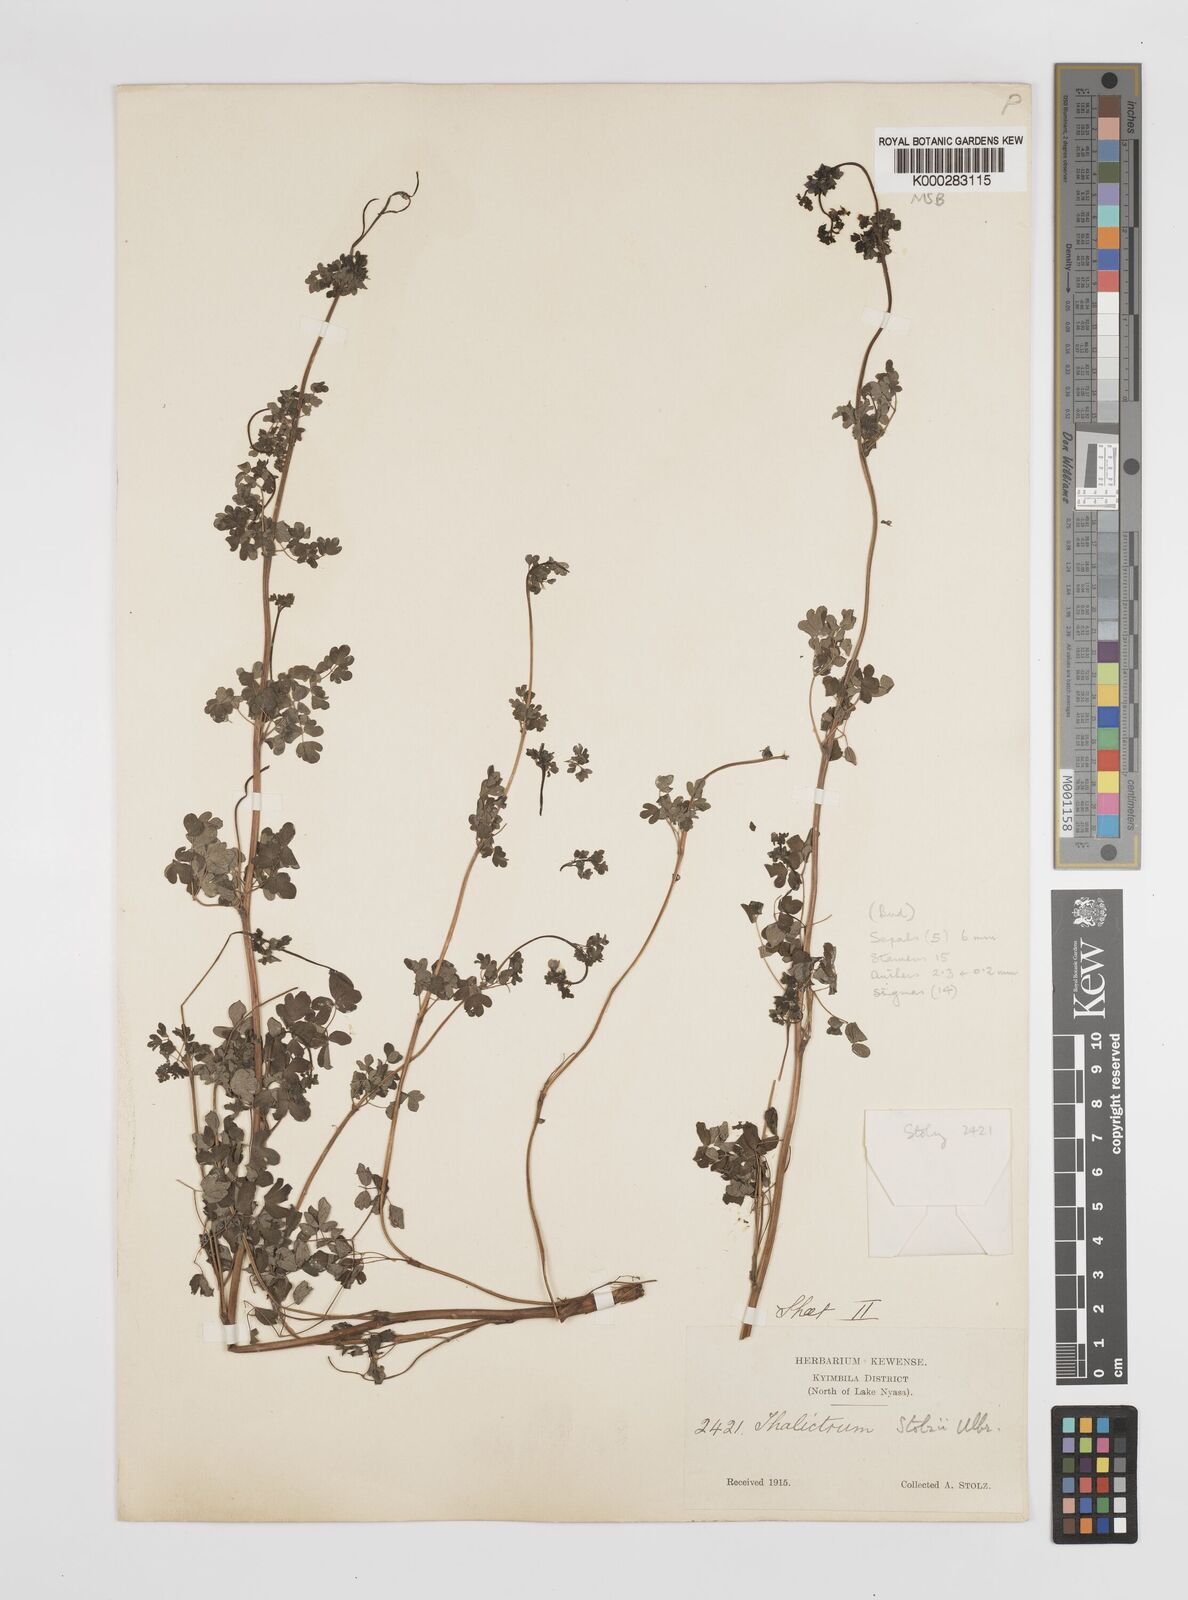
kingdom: Plantae
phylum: Tracheophyta
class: Magnoliopsida
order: Ranunculales
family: Ranunculaceae
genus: Thalictrum
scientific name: Thalictrum zernyi
